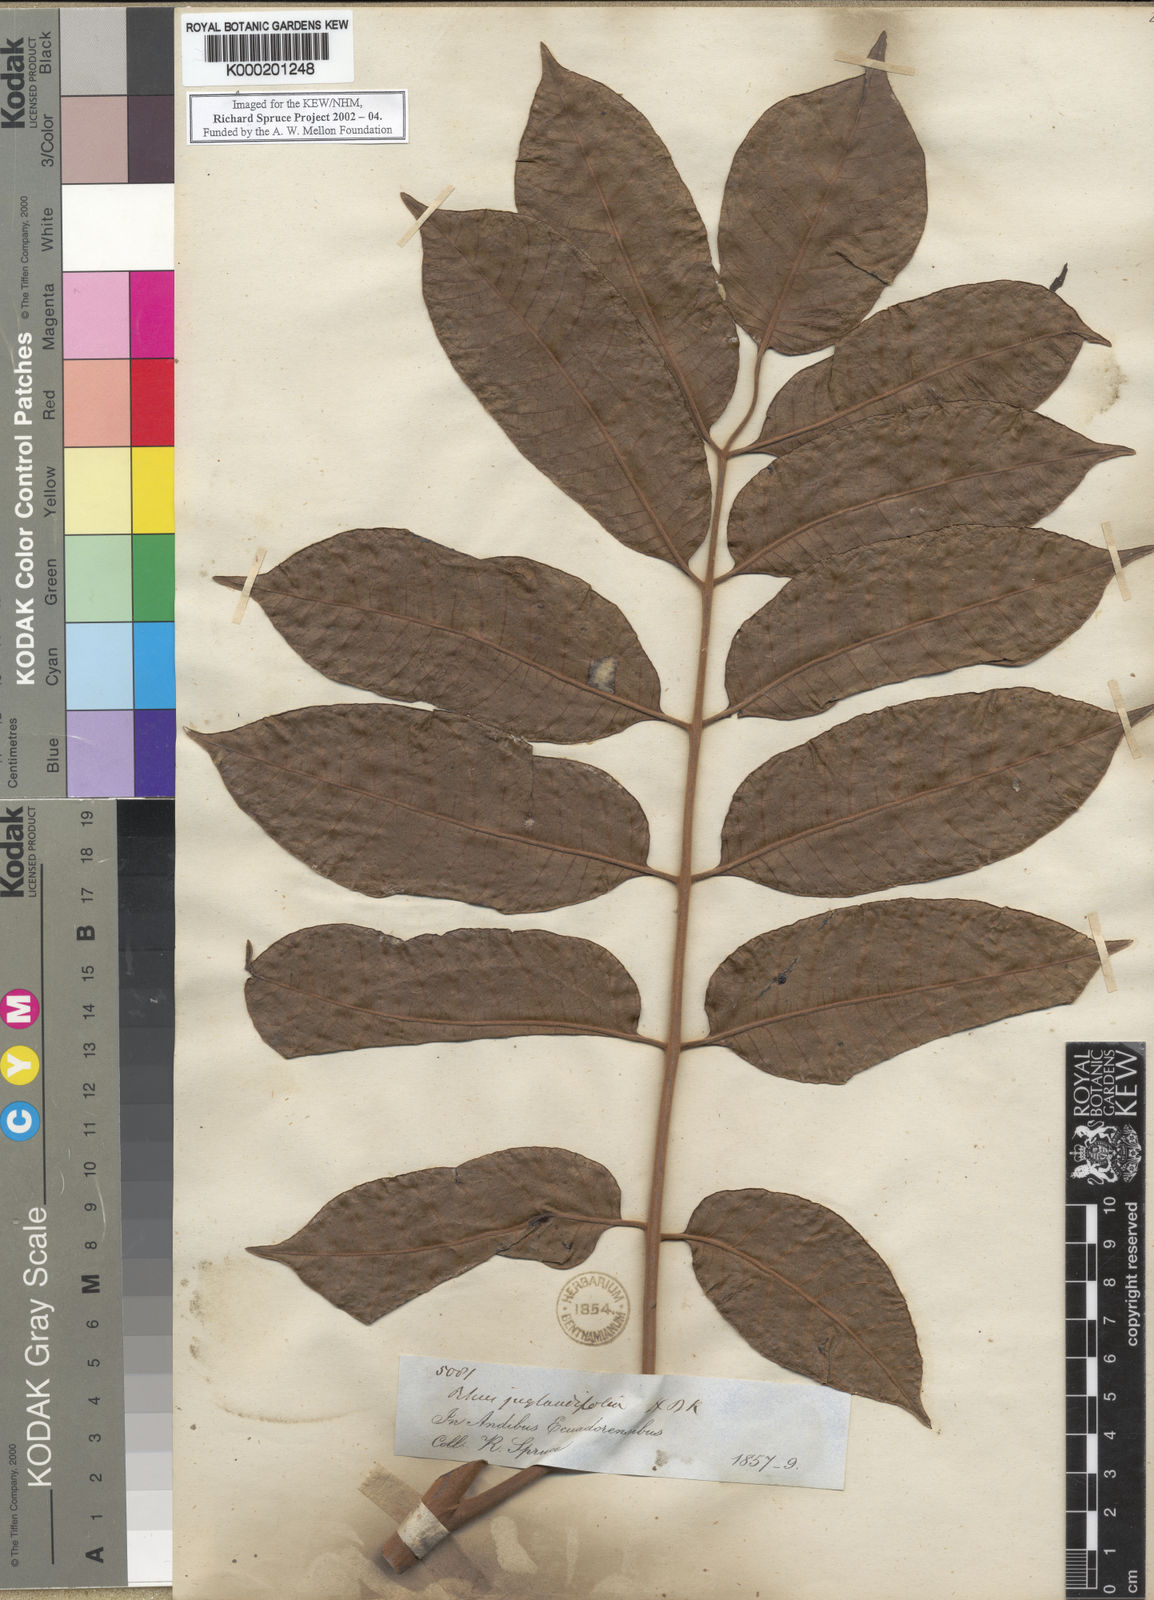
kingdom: Plantae
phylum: Tracheophyta
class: Magnoliopsida
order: Sapindales
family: Anacardiaceae
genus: Rhus
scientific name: Rhus
